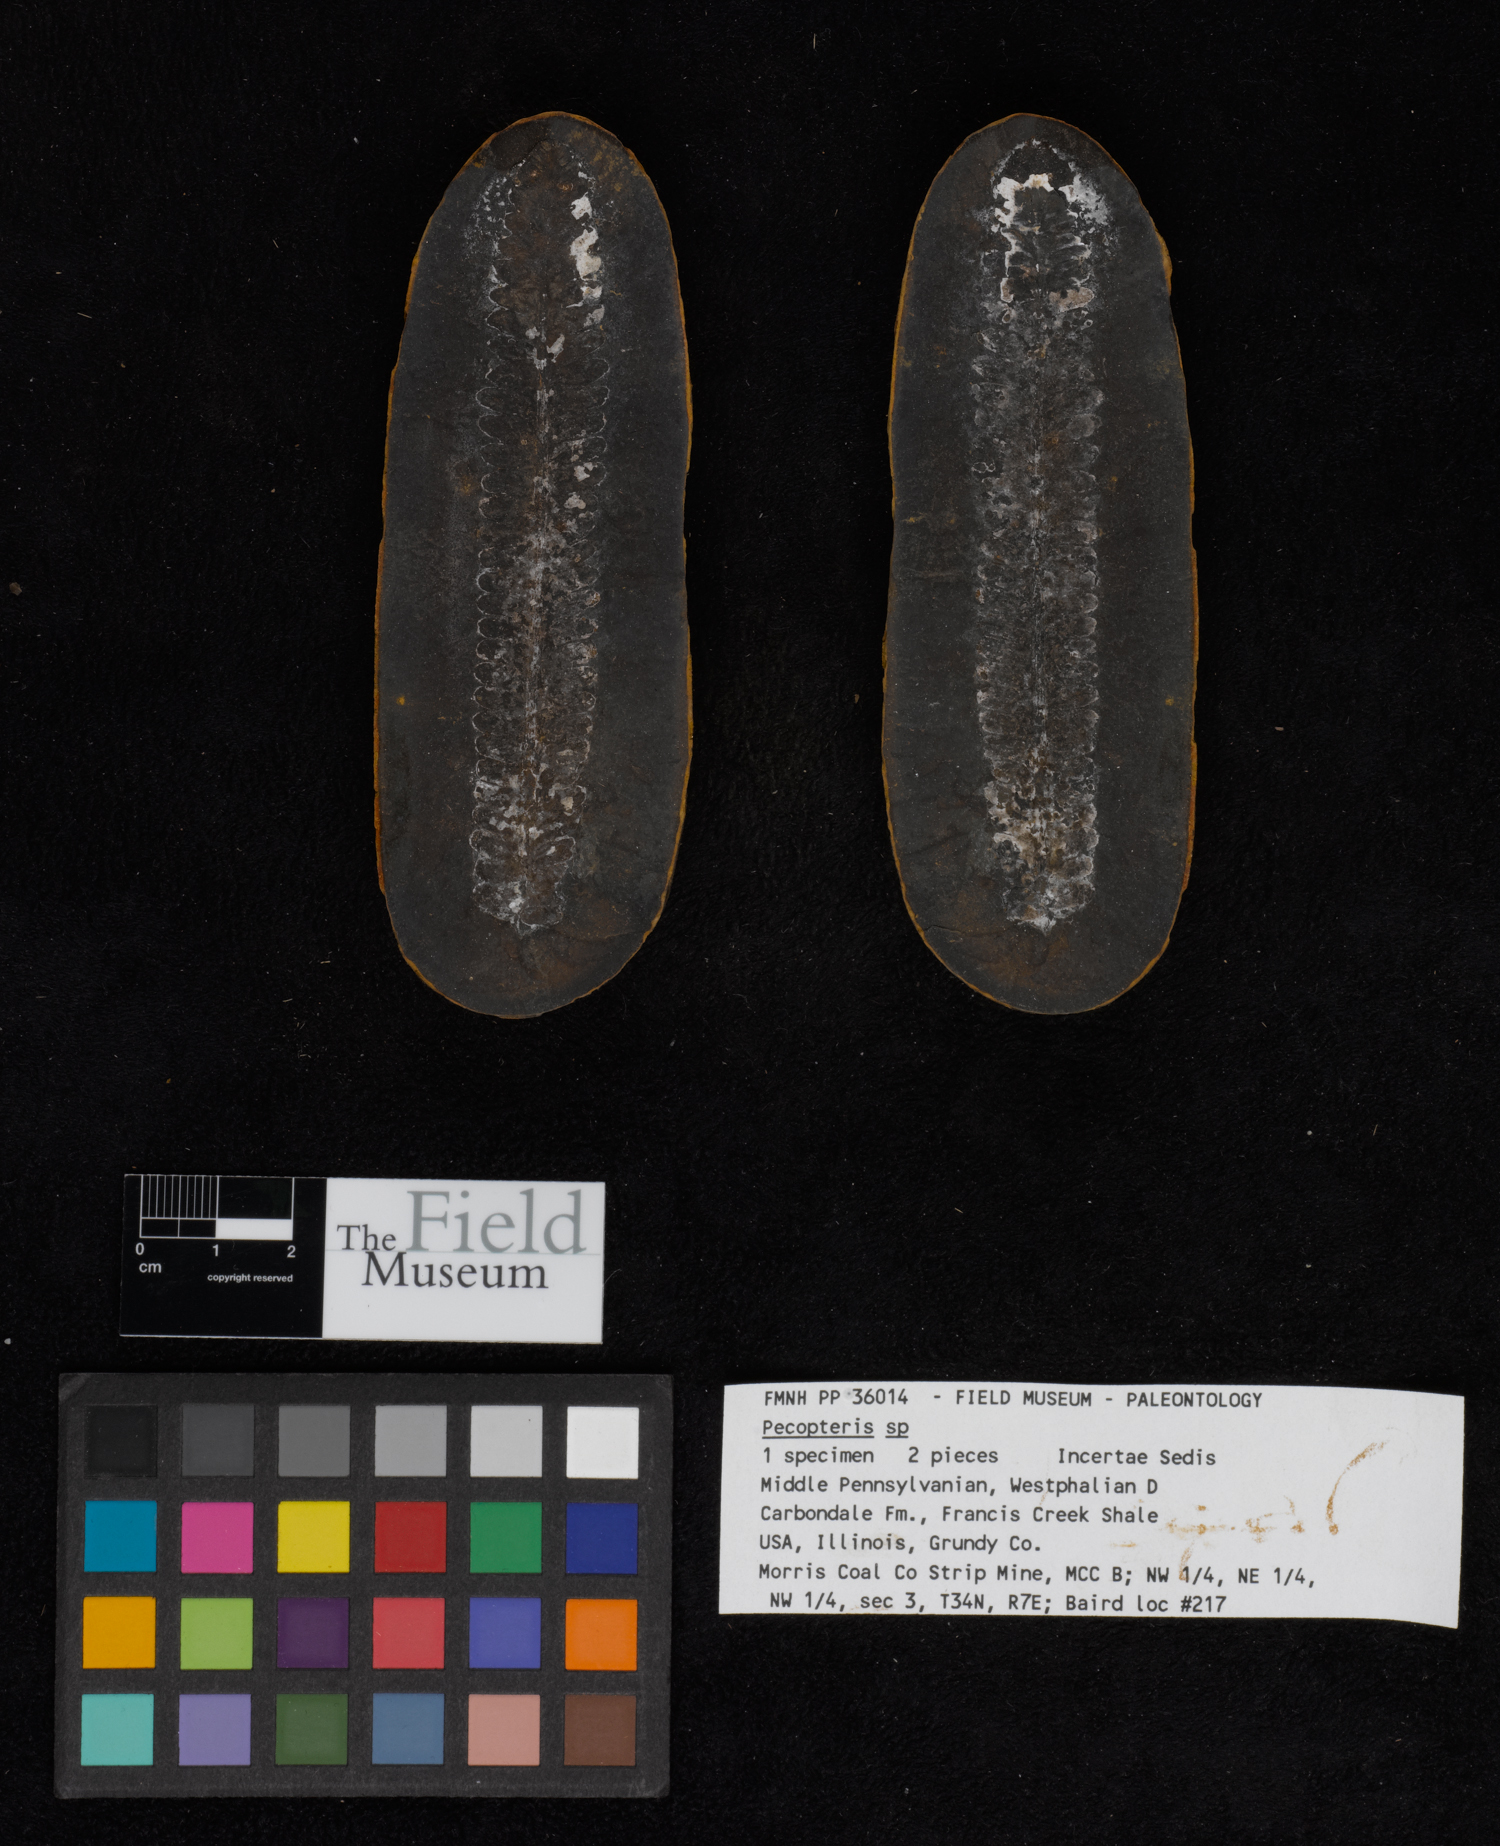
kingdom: Plantae
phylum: Tracheophyta
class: Polypodiopsida
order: Marattiales
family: Asterothecaceae
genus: Pecopteris
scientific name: Pecopteris
